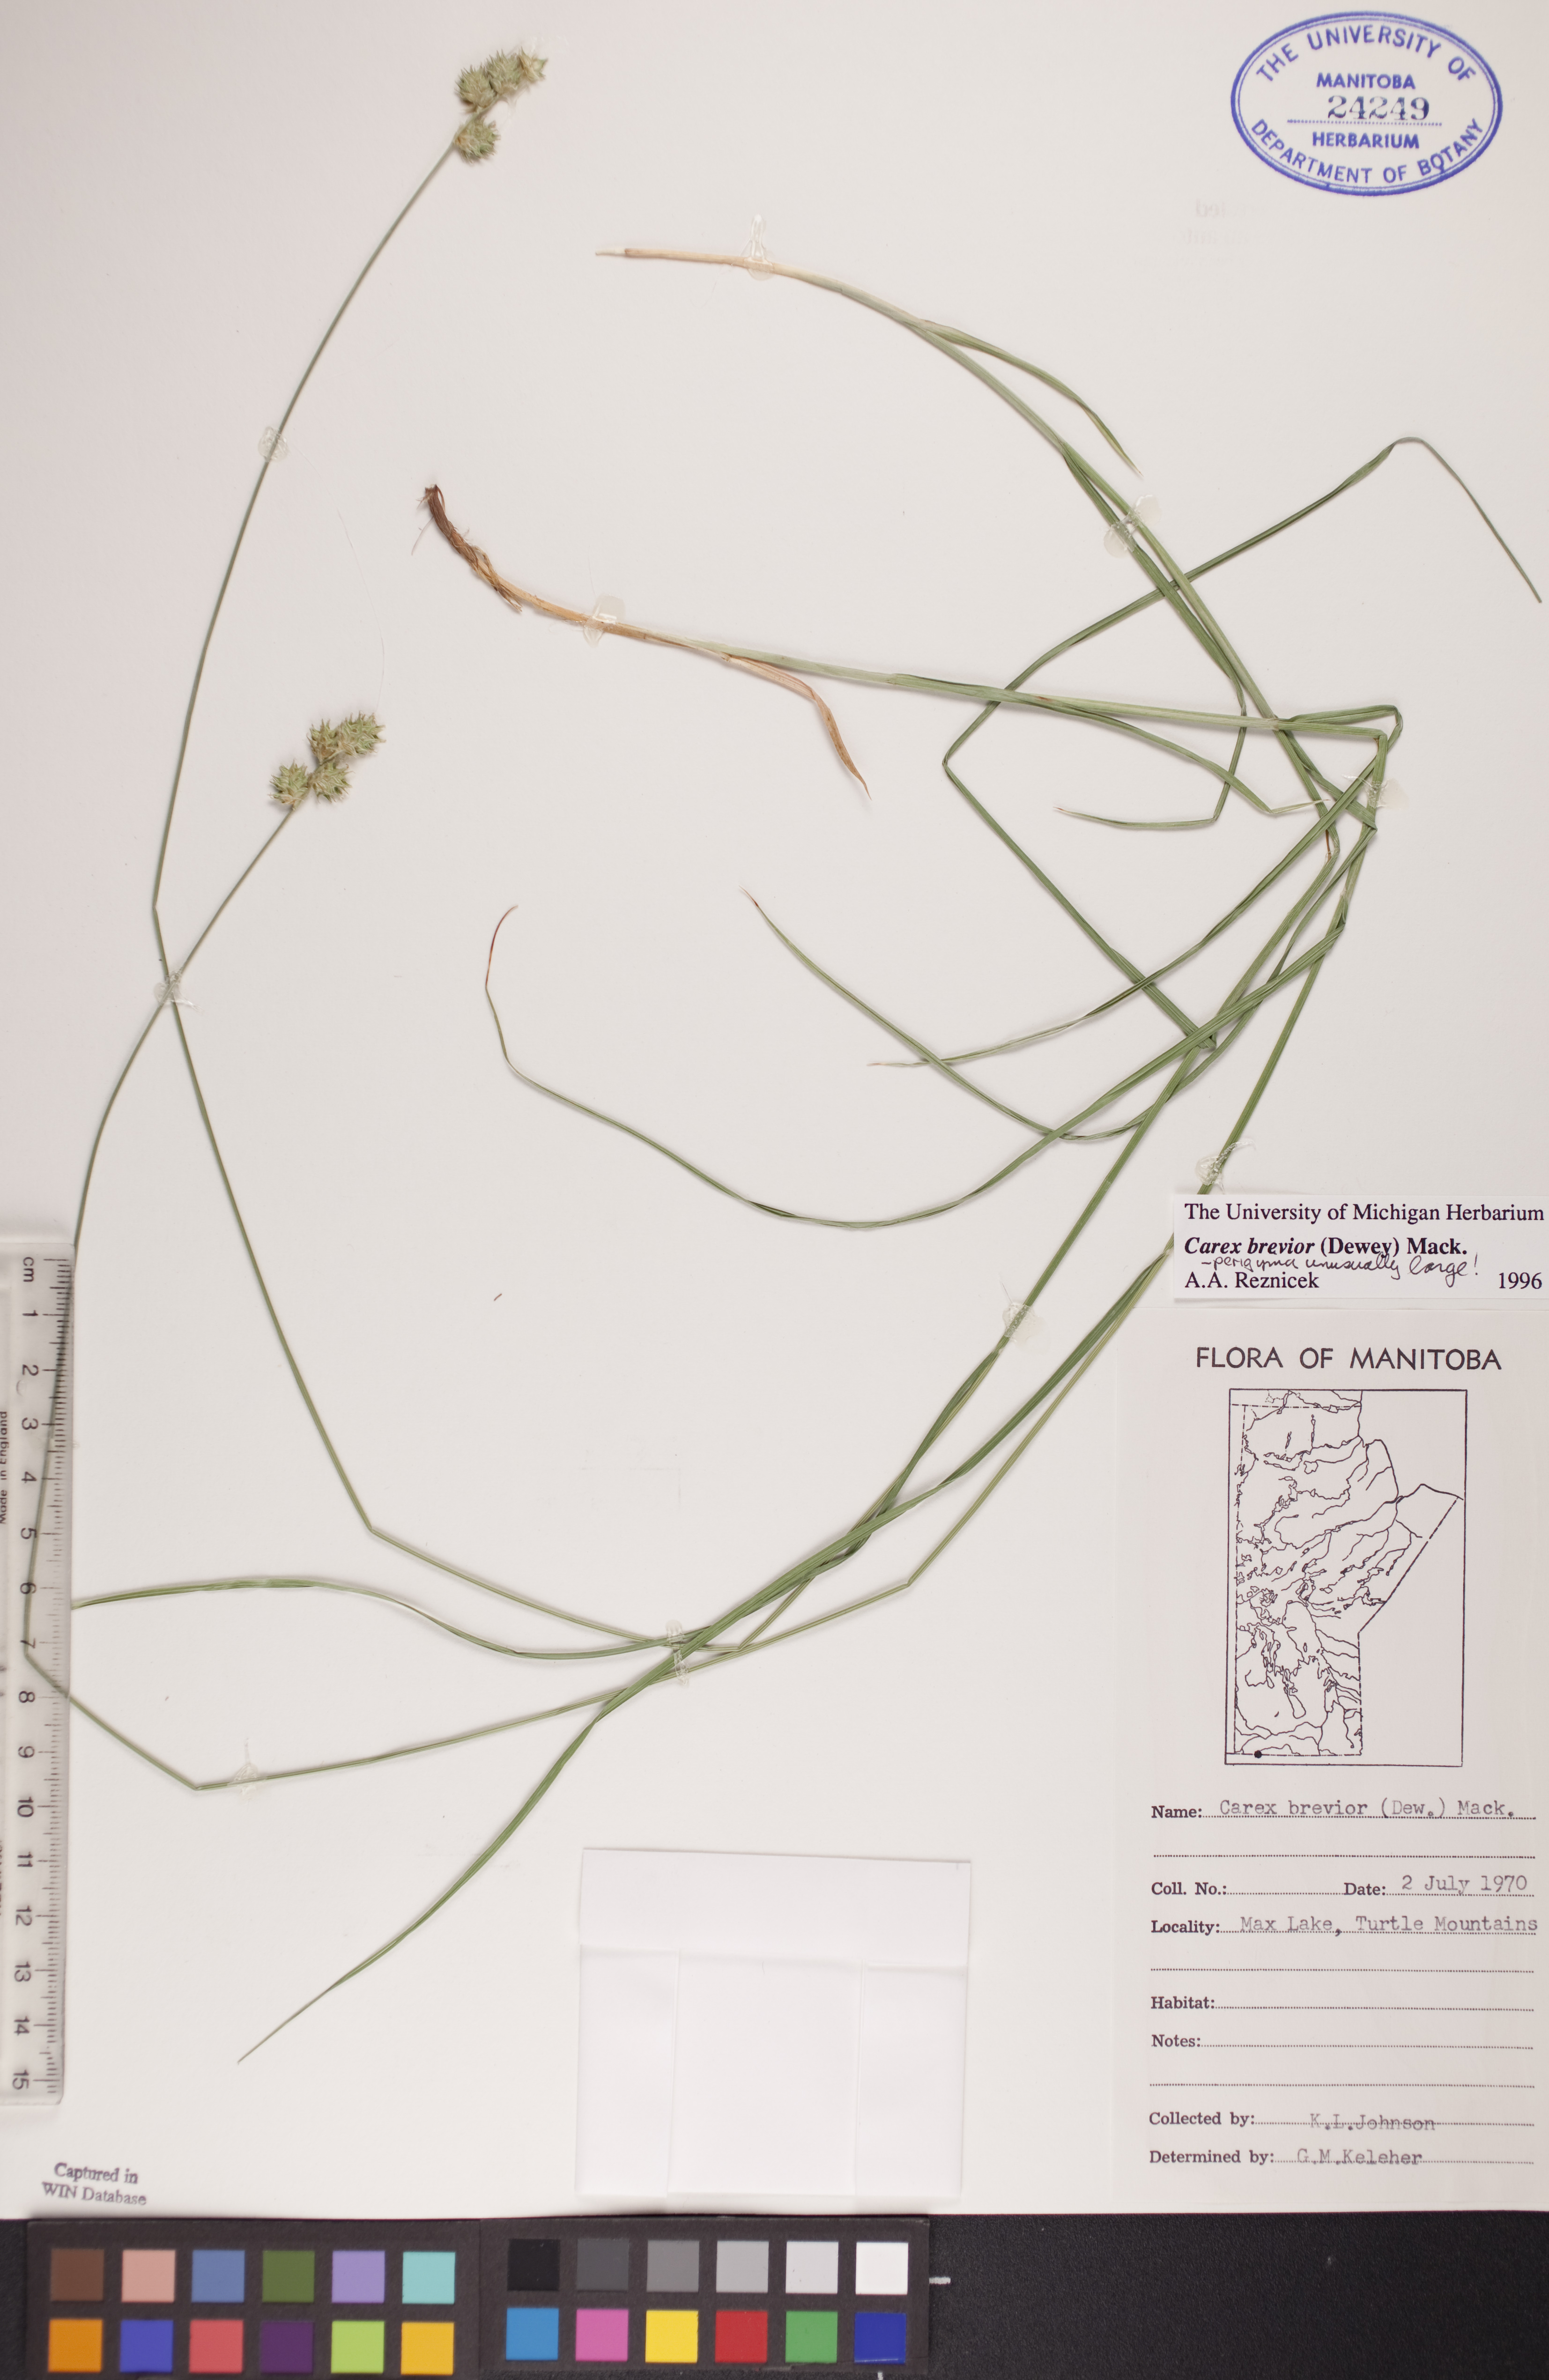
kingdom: Plantae
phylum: Tracheophyta
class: Liliopsida
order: Poales
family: Cyperaceae
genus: Carex
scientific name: Carex brevior
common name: Brevior sedge
